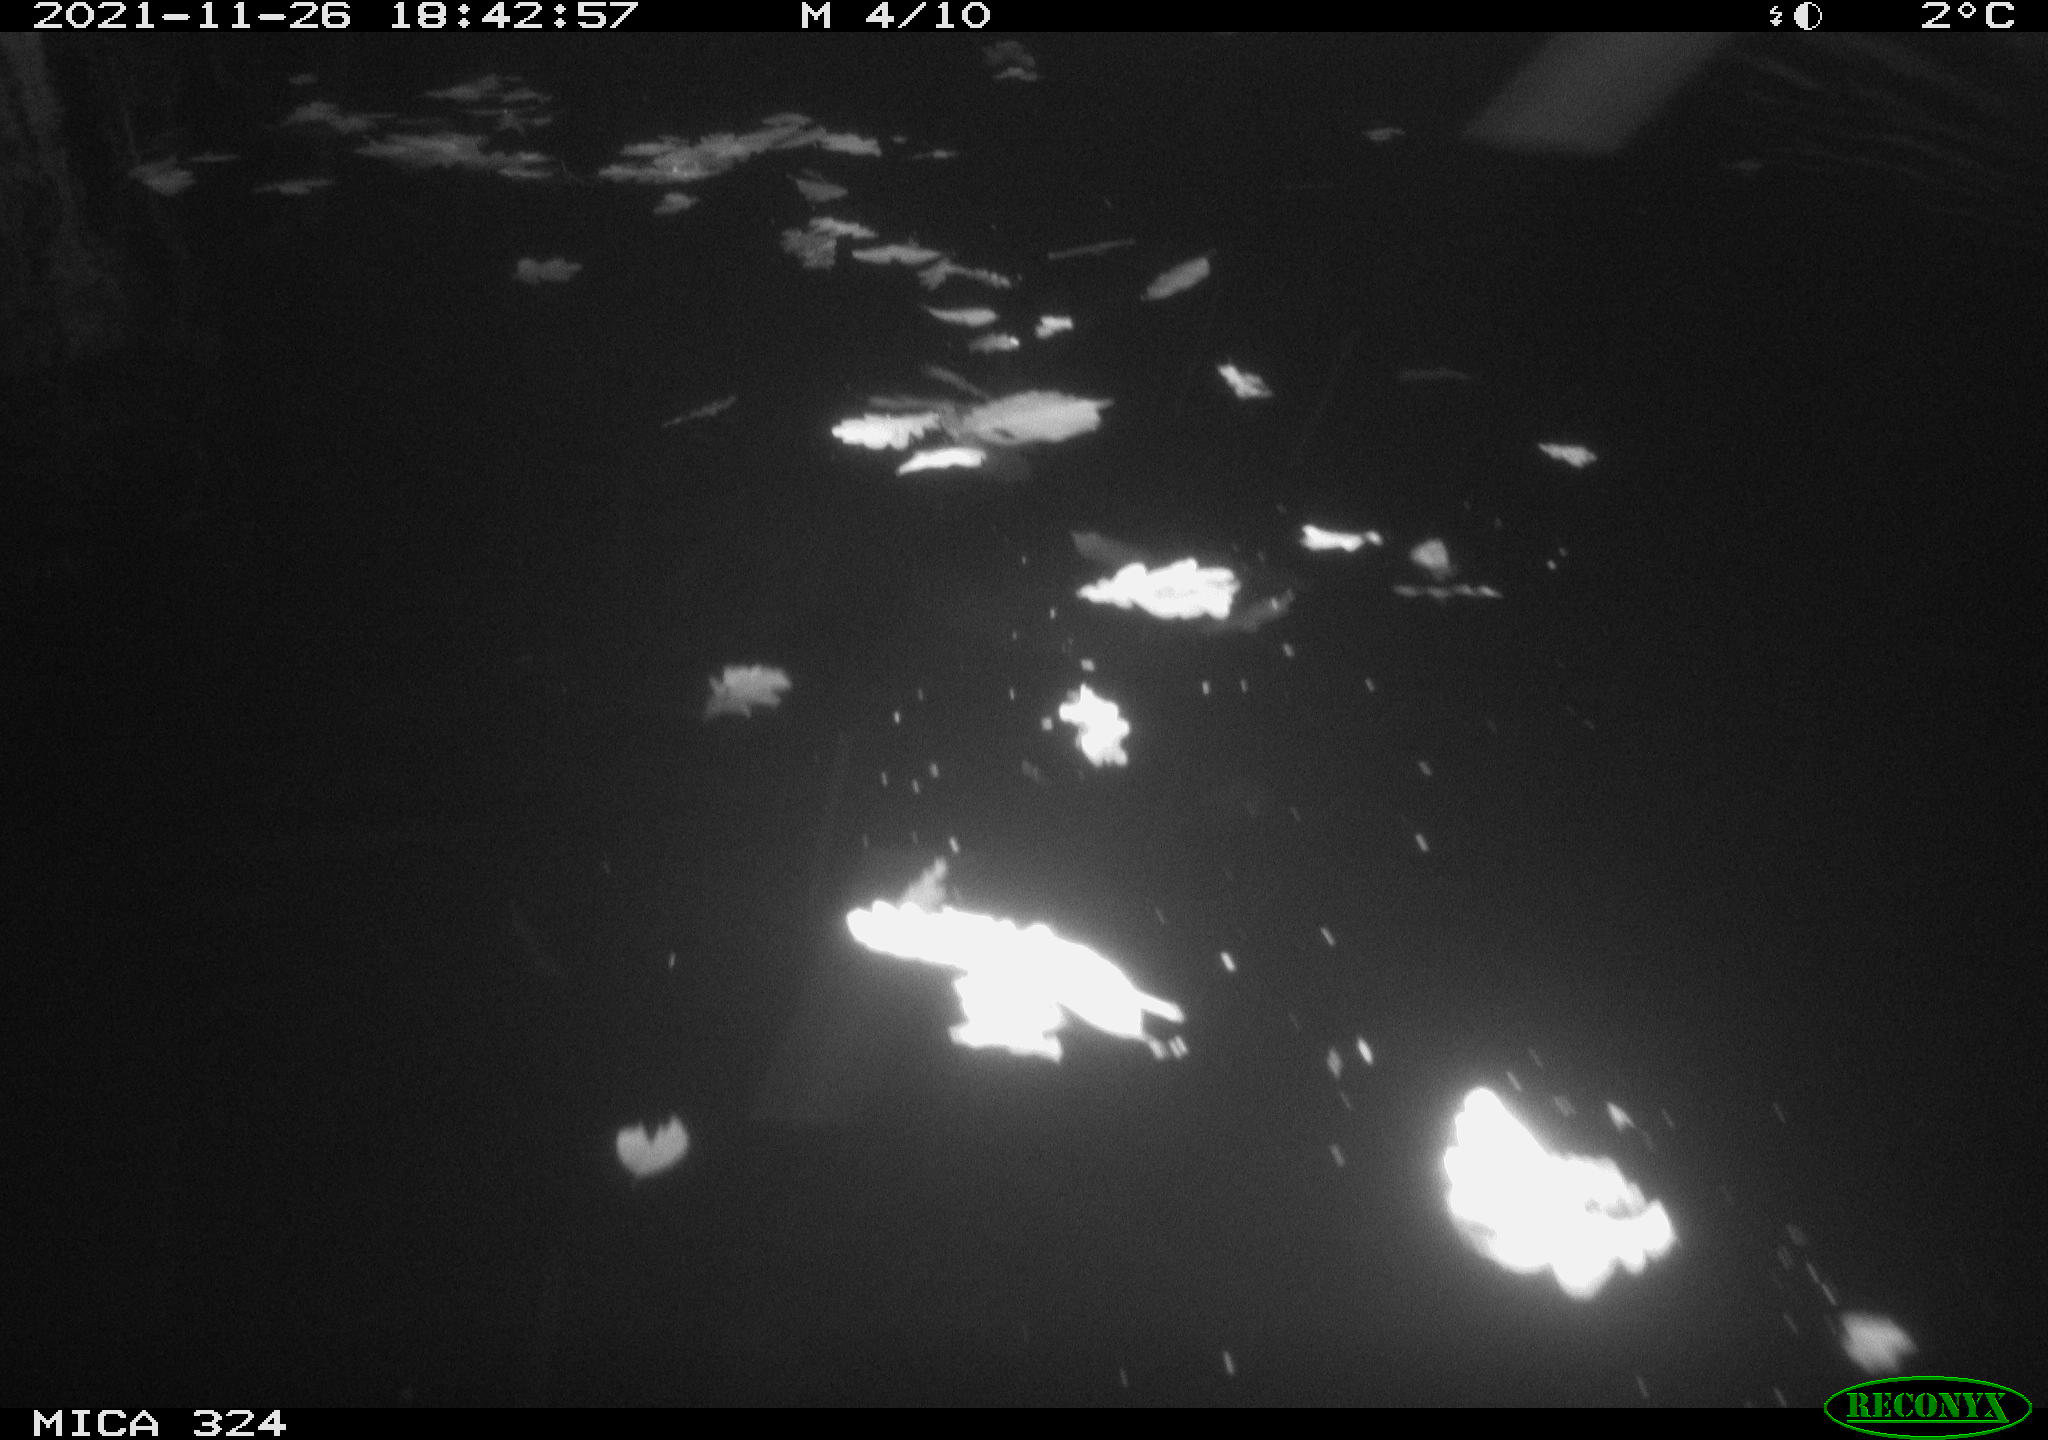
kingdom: Animalia
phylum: Chordata
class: Mammalia
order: Rodentia
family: Cricetidae
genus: Ondatra
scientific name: Ondatra zibethicus
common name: Muskrat
